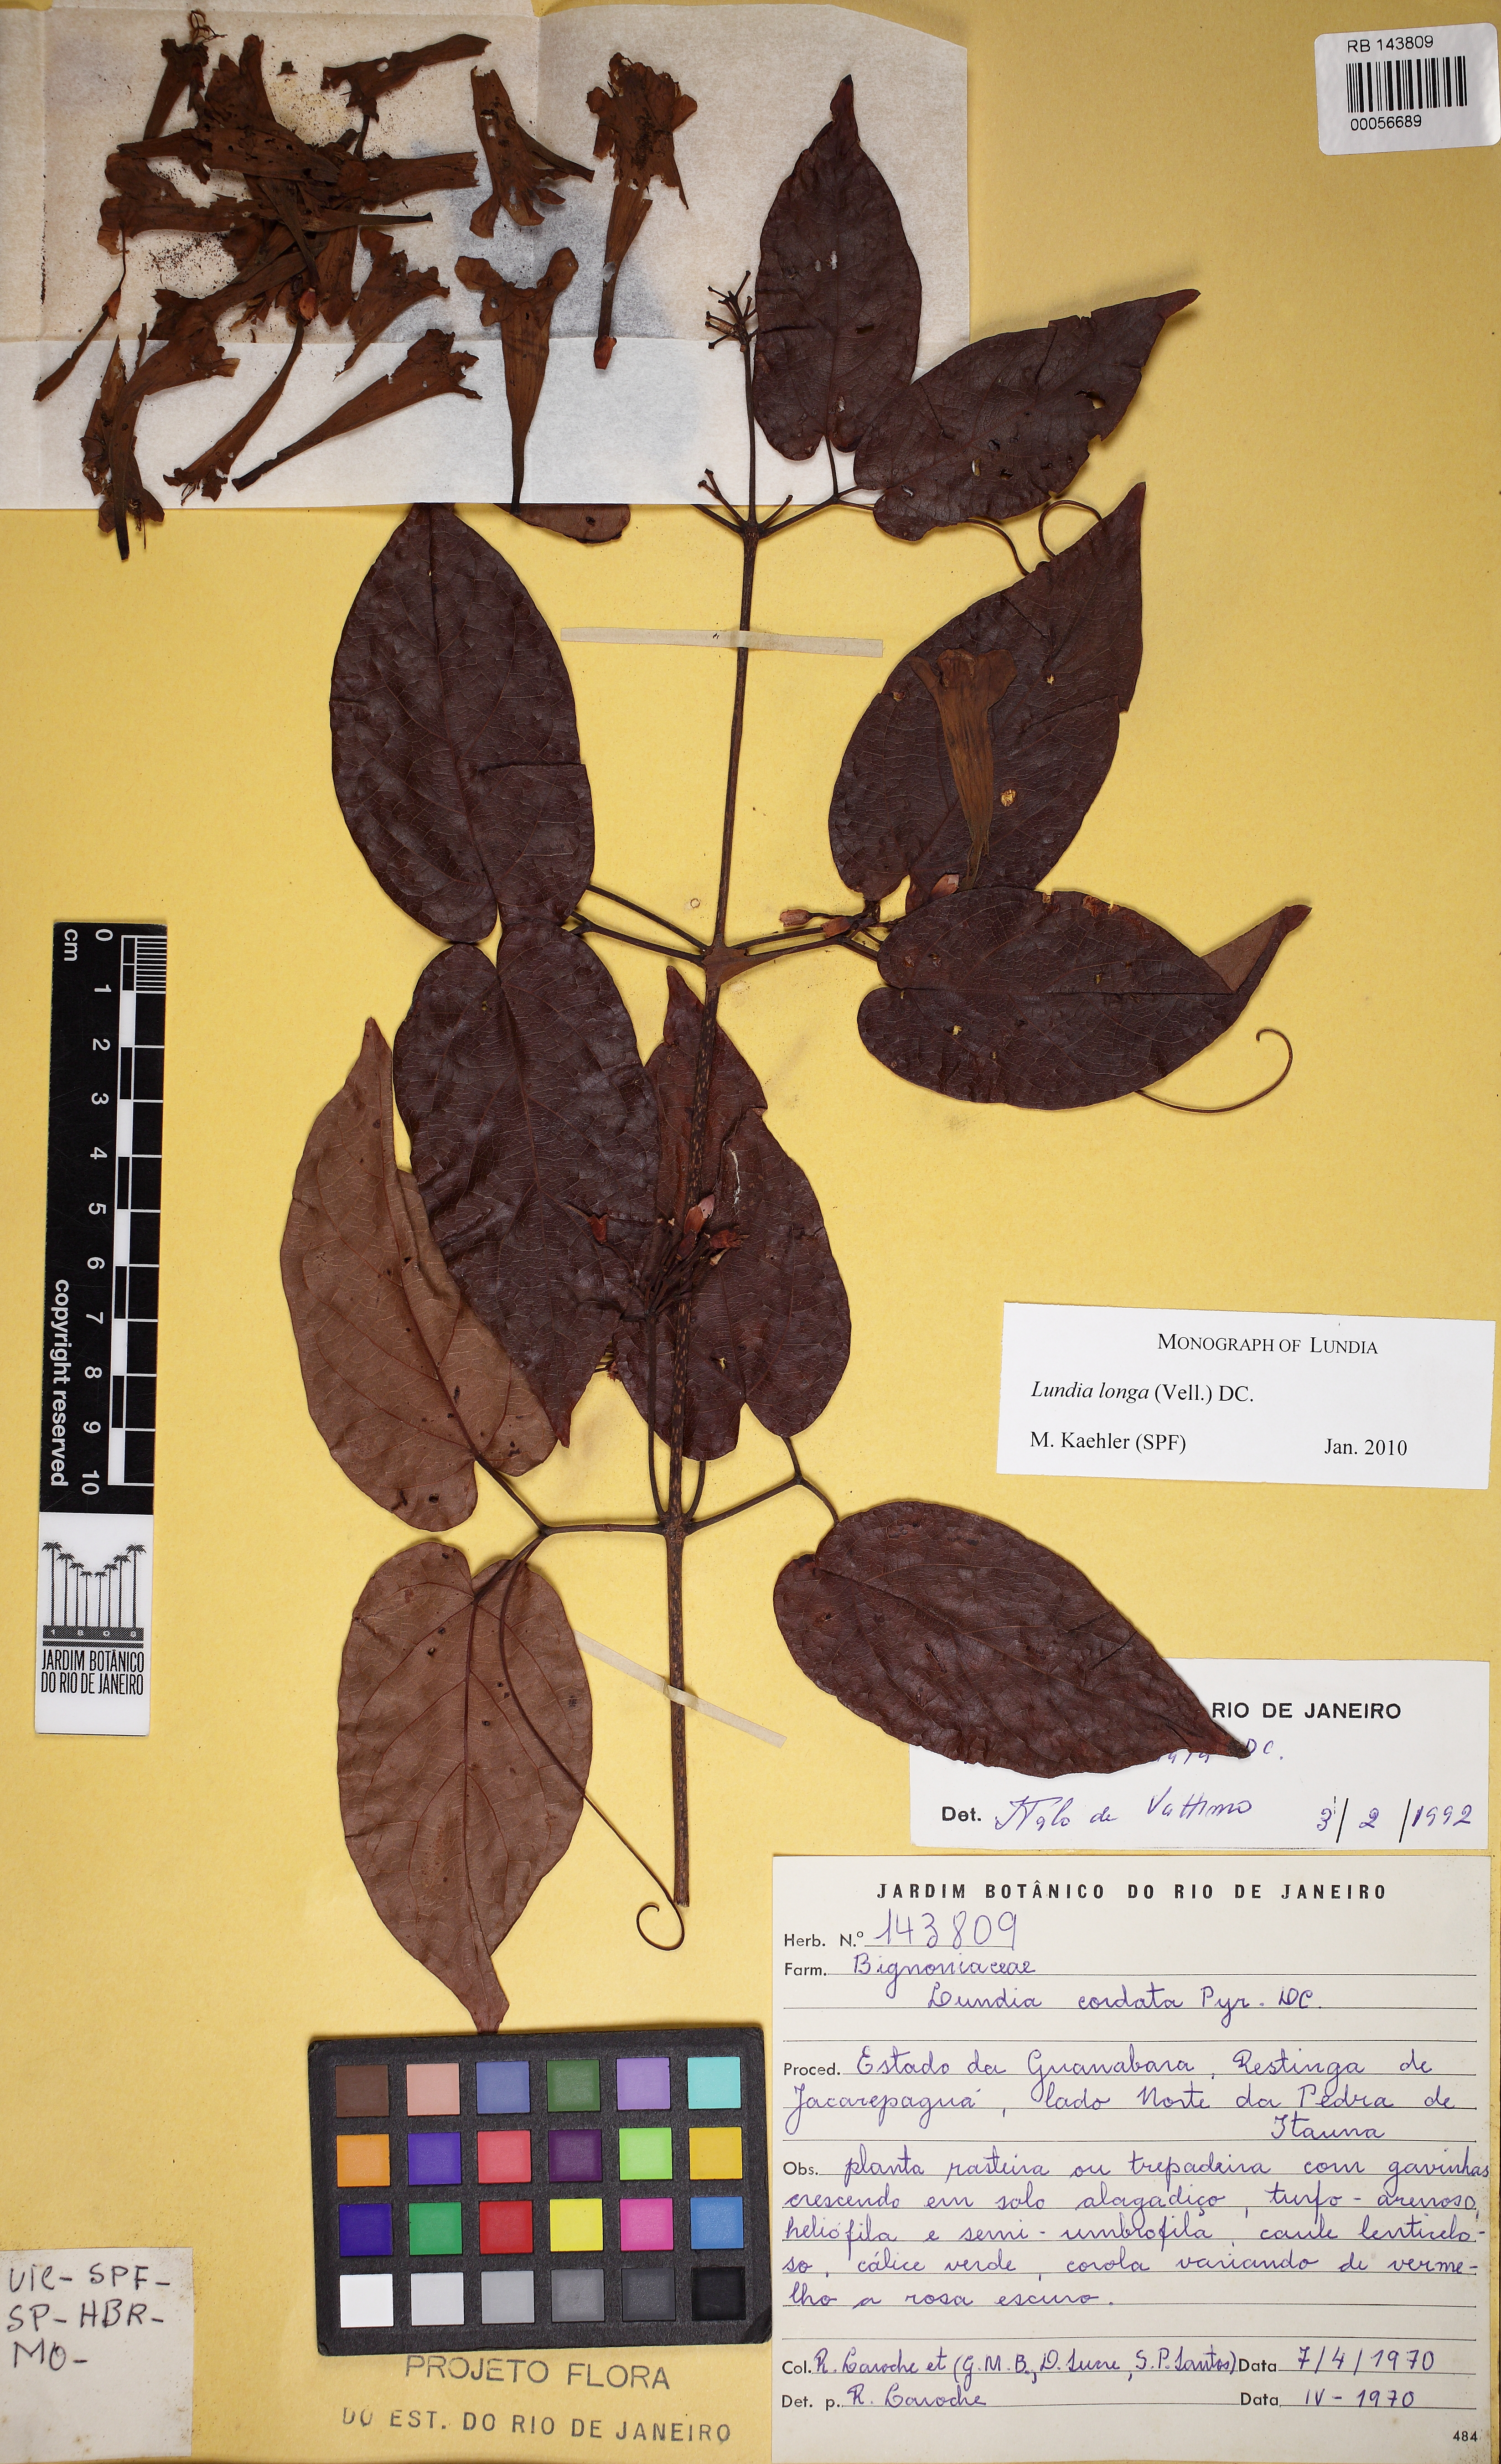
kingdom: Plantae
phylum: Tracheophyta
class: Magnoliopsida
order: Lamiales
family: Bignoniaceae
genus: Lundia
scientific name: Lundia longa
